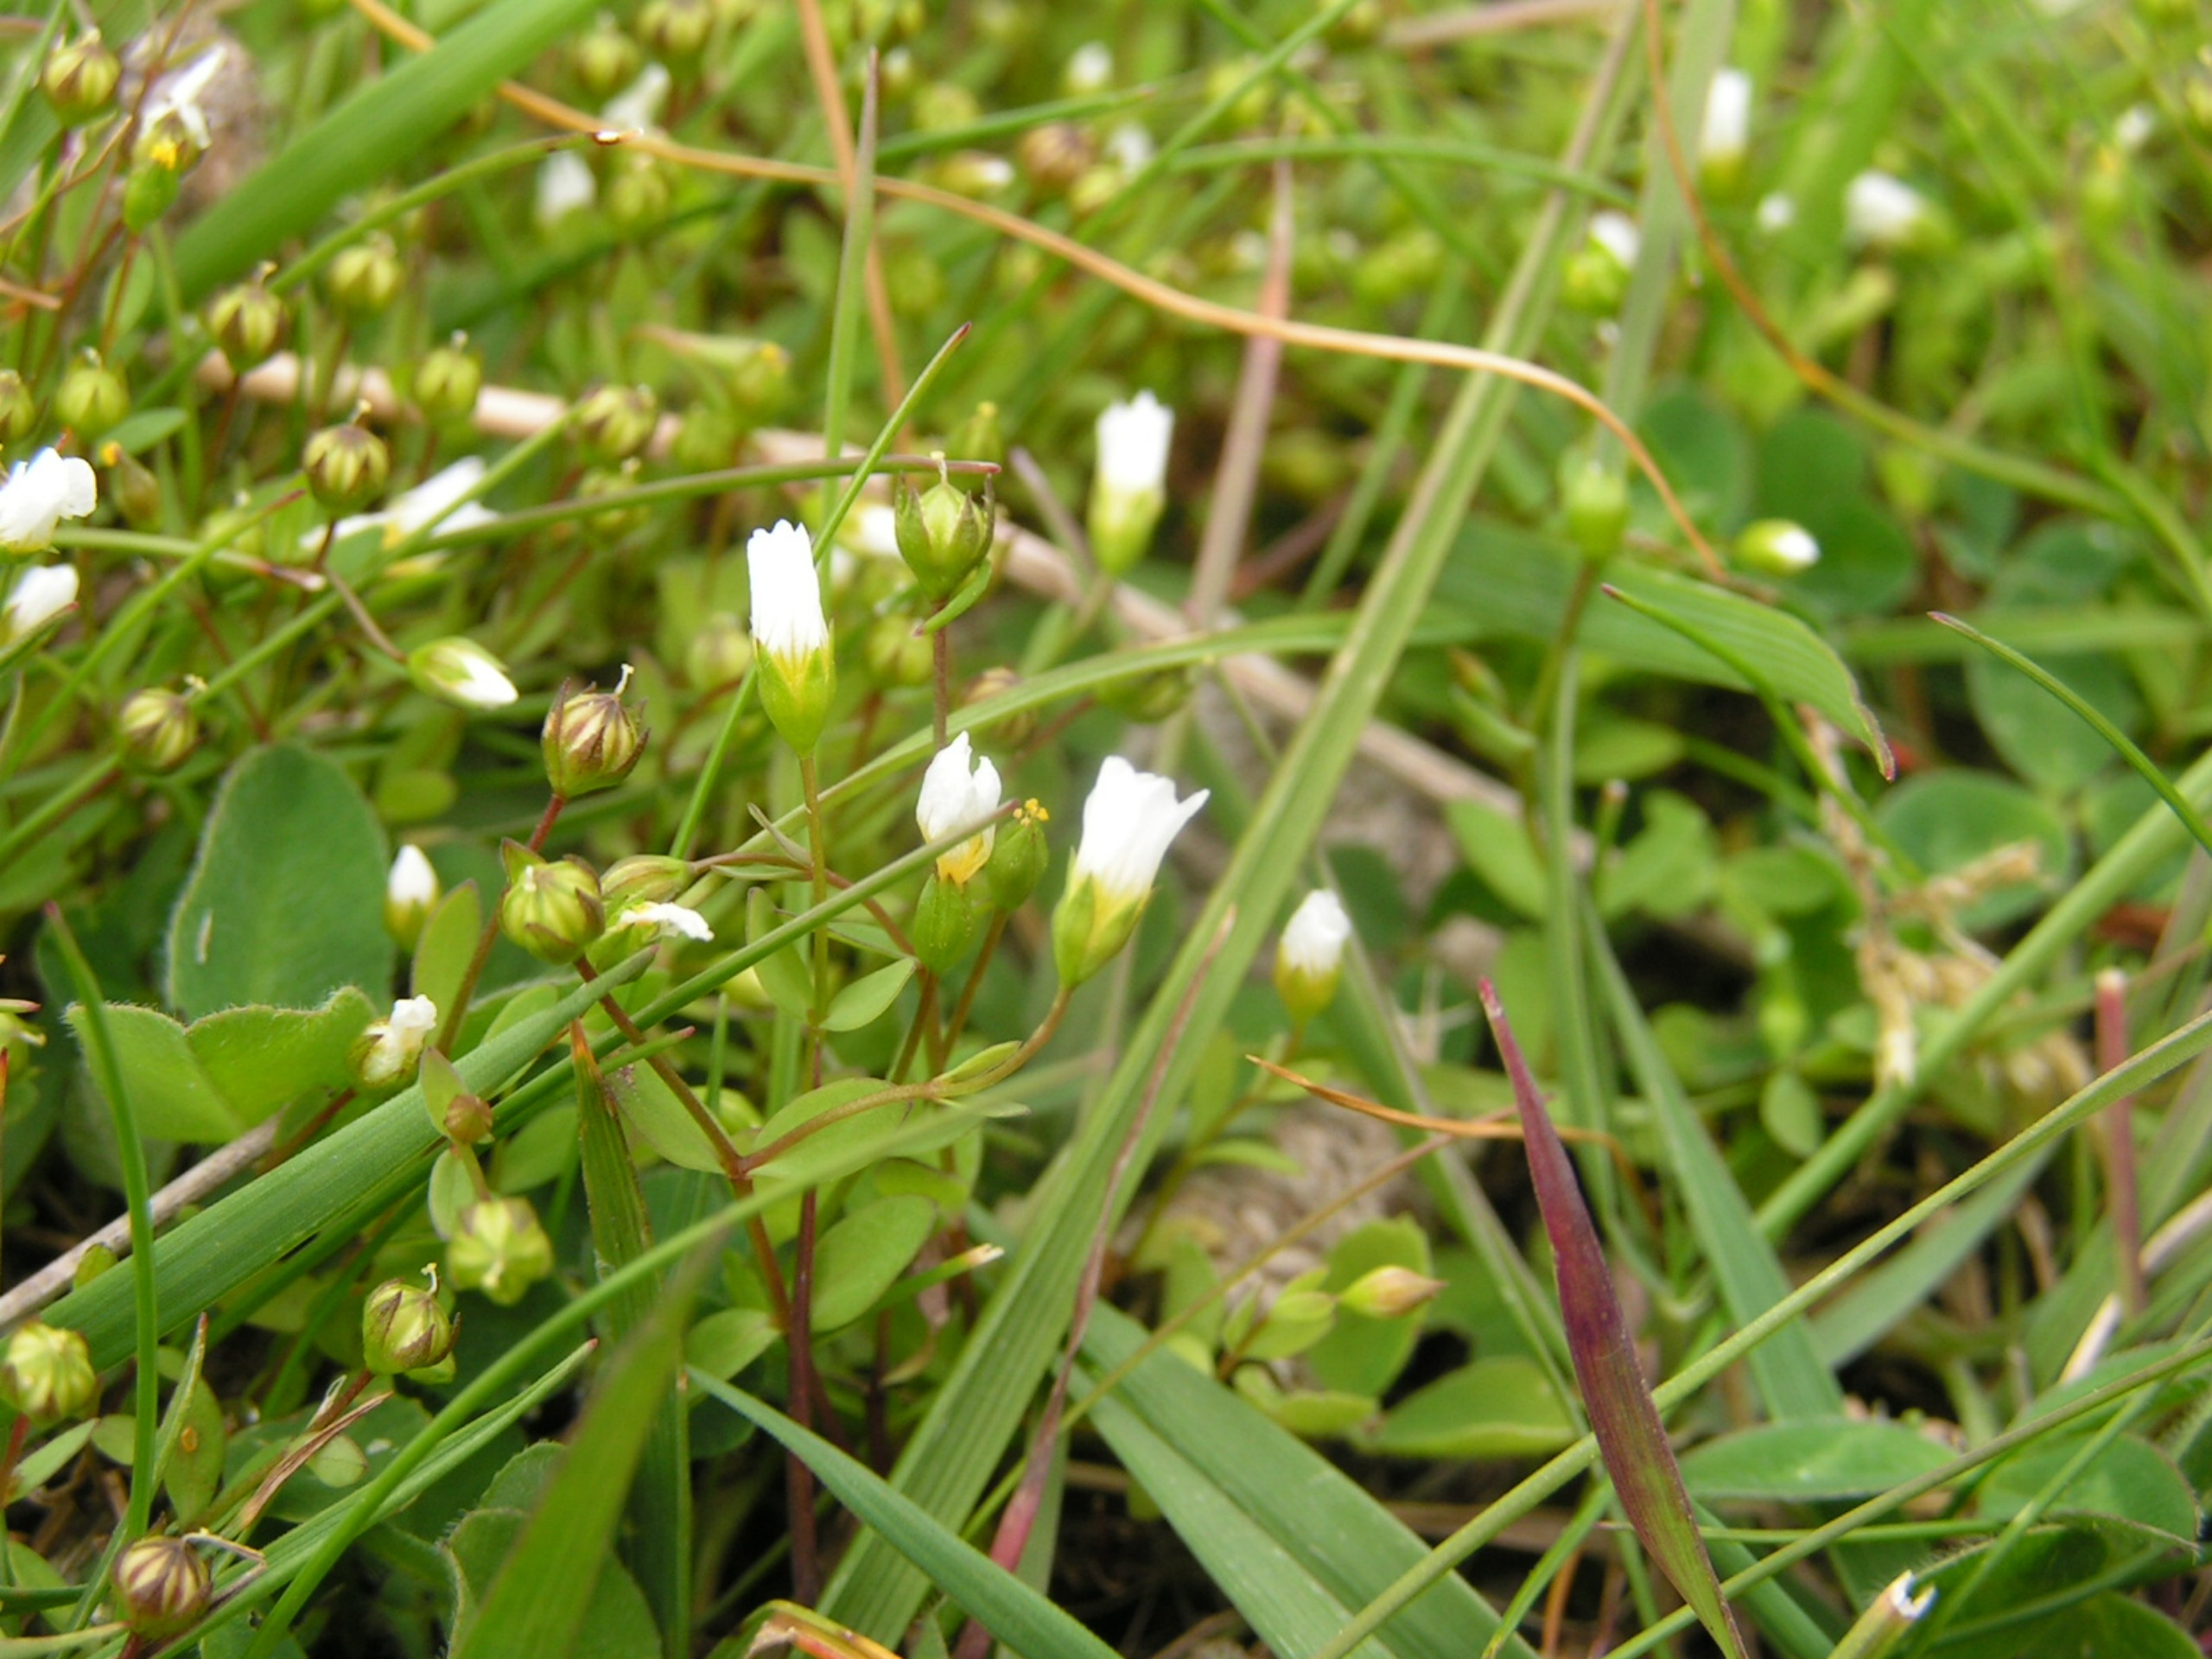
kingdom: Plantae
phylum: Tracheophyta
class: Magnoliopsida
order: Malpighiales
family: Linaceae
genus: Linum
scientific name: Linum catharticum
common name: Vild hør
